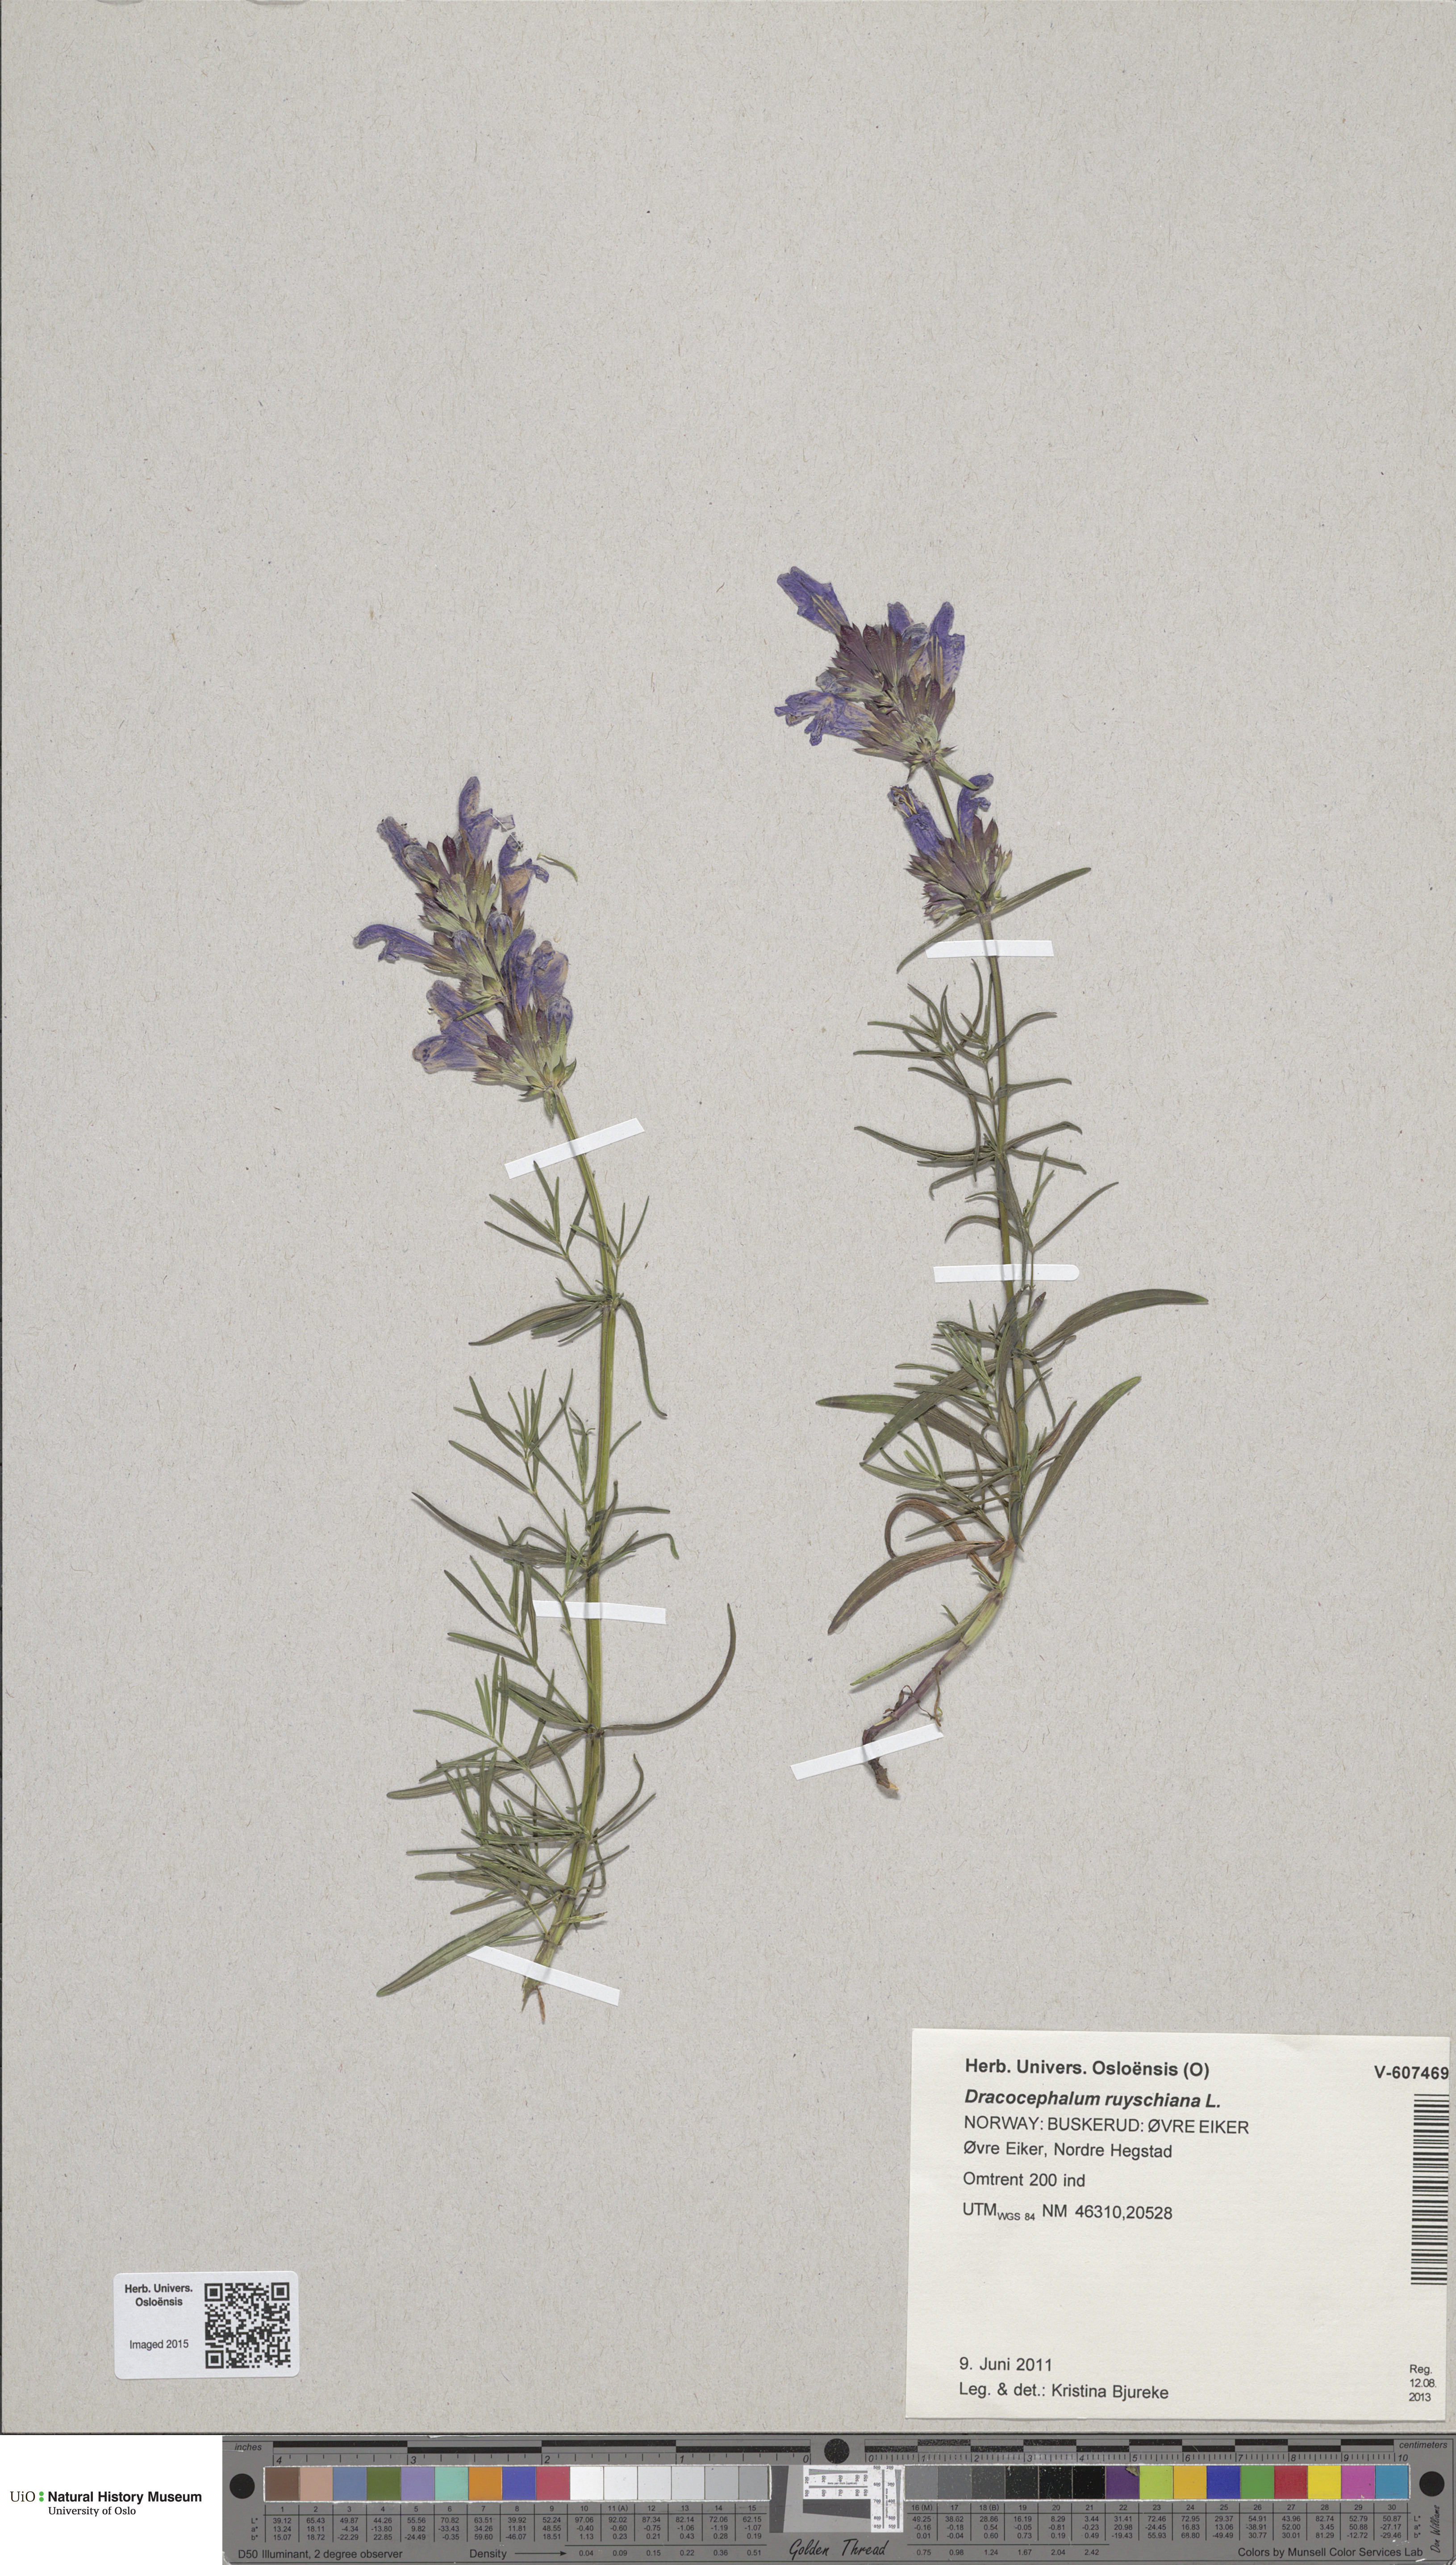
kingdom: Plantae
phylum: Tracheophyta
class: Magnoliopsida
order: Lamiales
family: Lamiaceae
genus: Dracocephalum
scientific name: Dracocephalum ruyschiana
